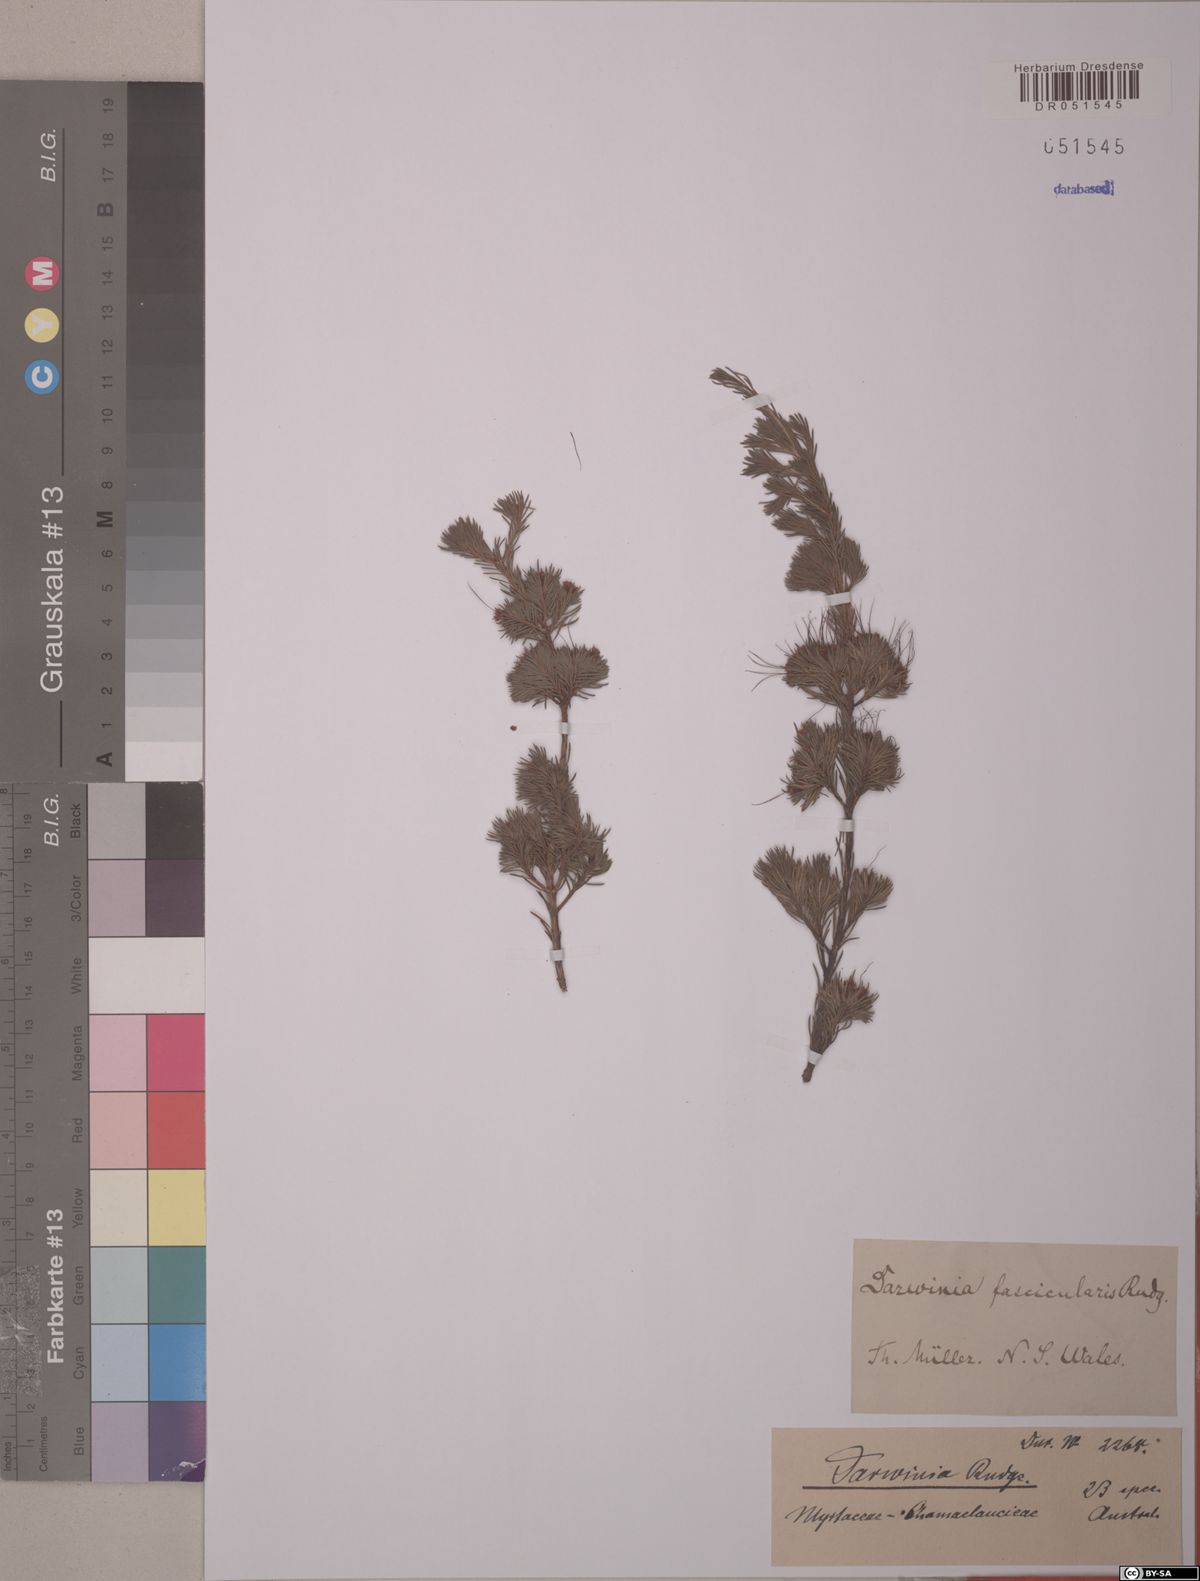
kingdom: Plantae
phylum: Tracheophyta
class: Magnoliopsida
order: Myrtales
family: Myrtaceae
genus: Darwinia
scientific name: Darwinia fascicularis
